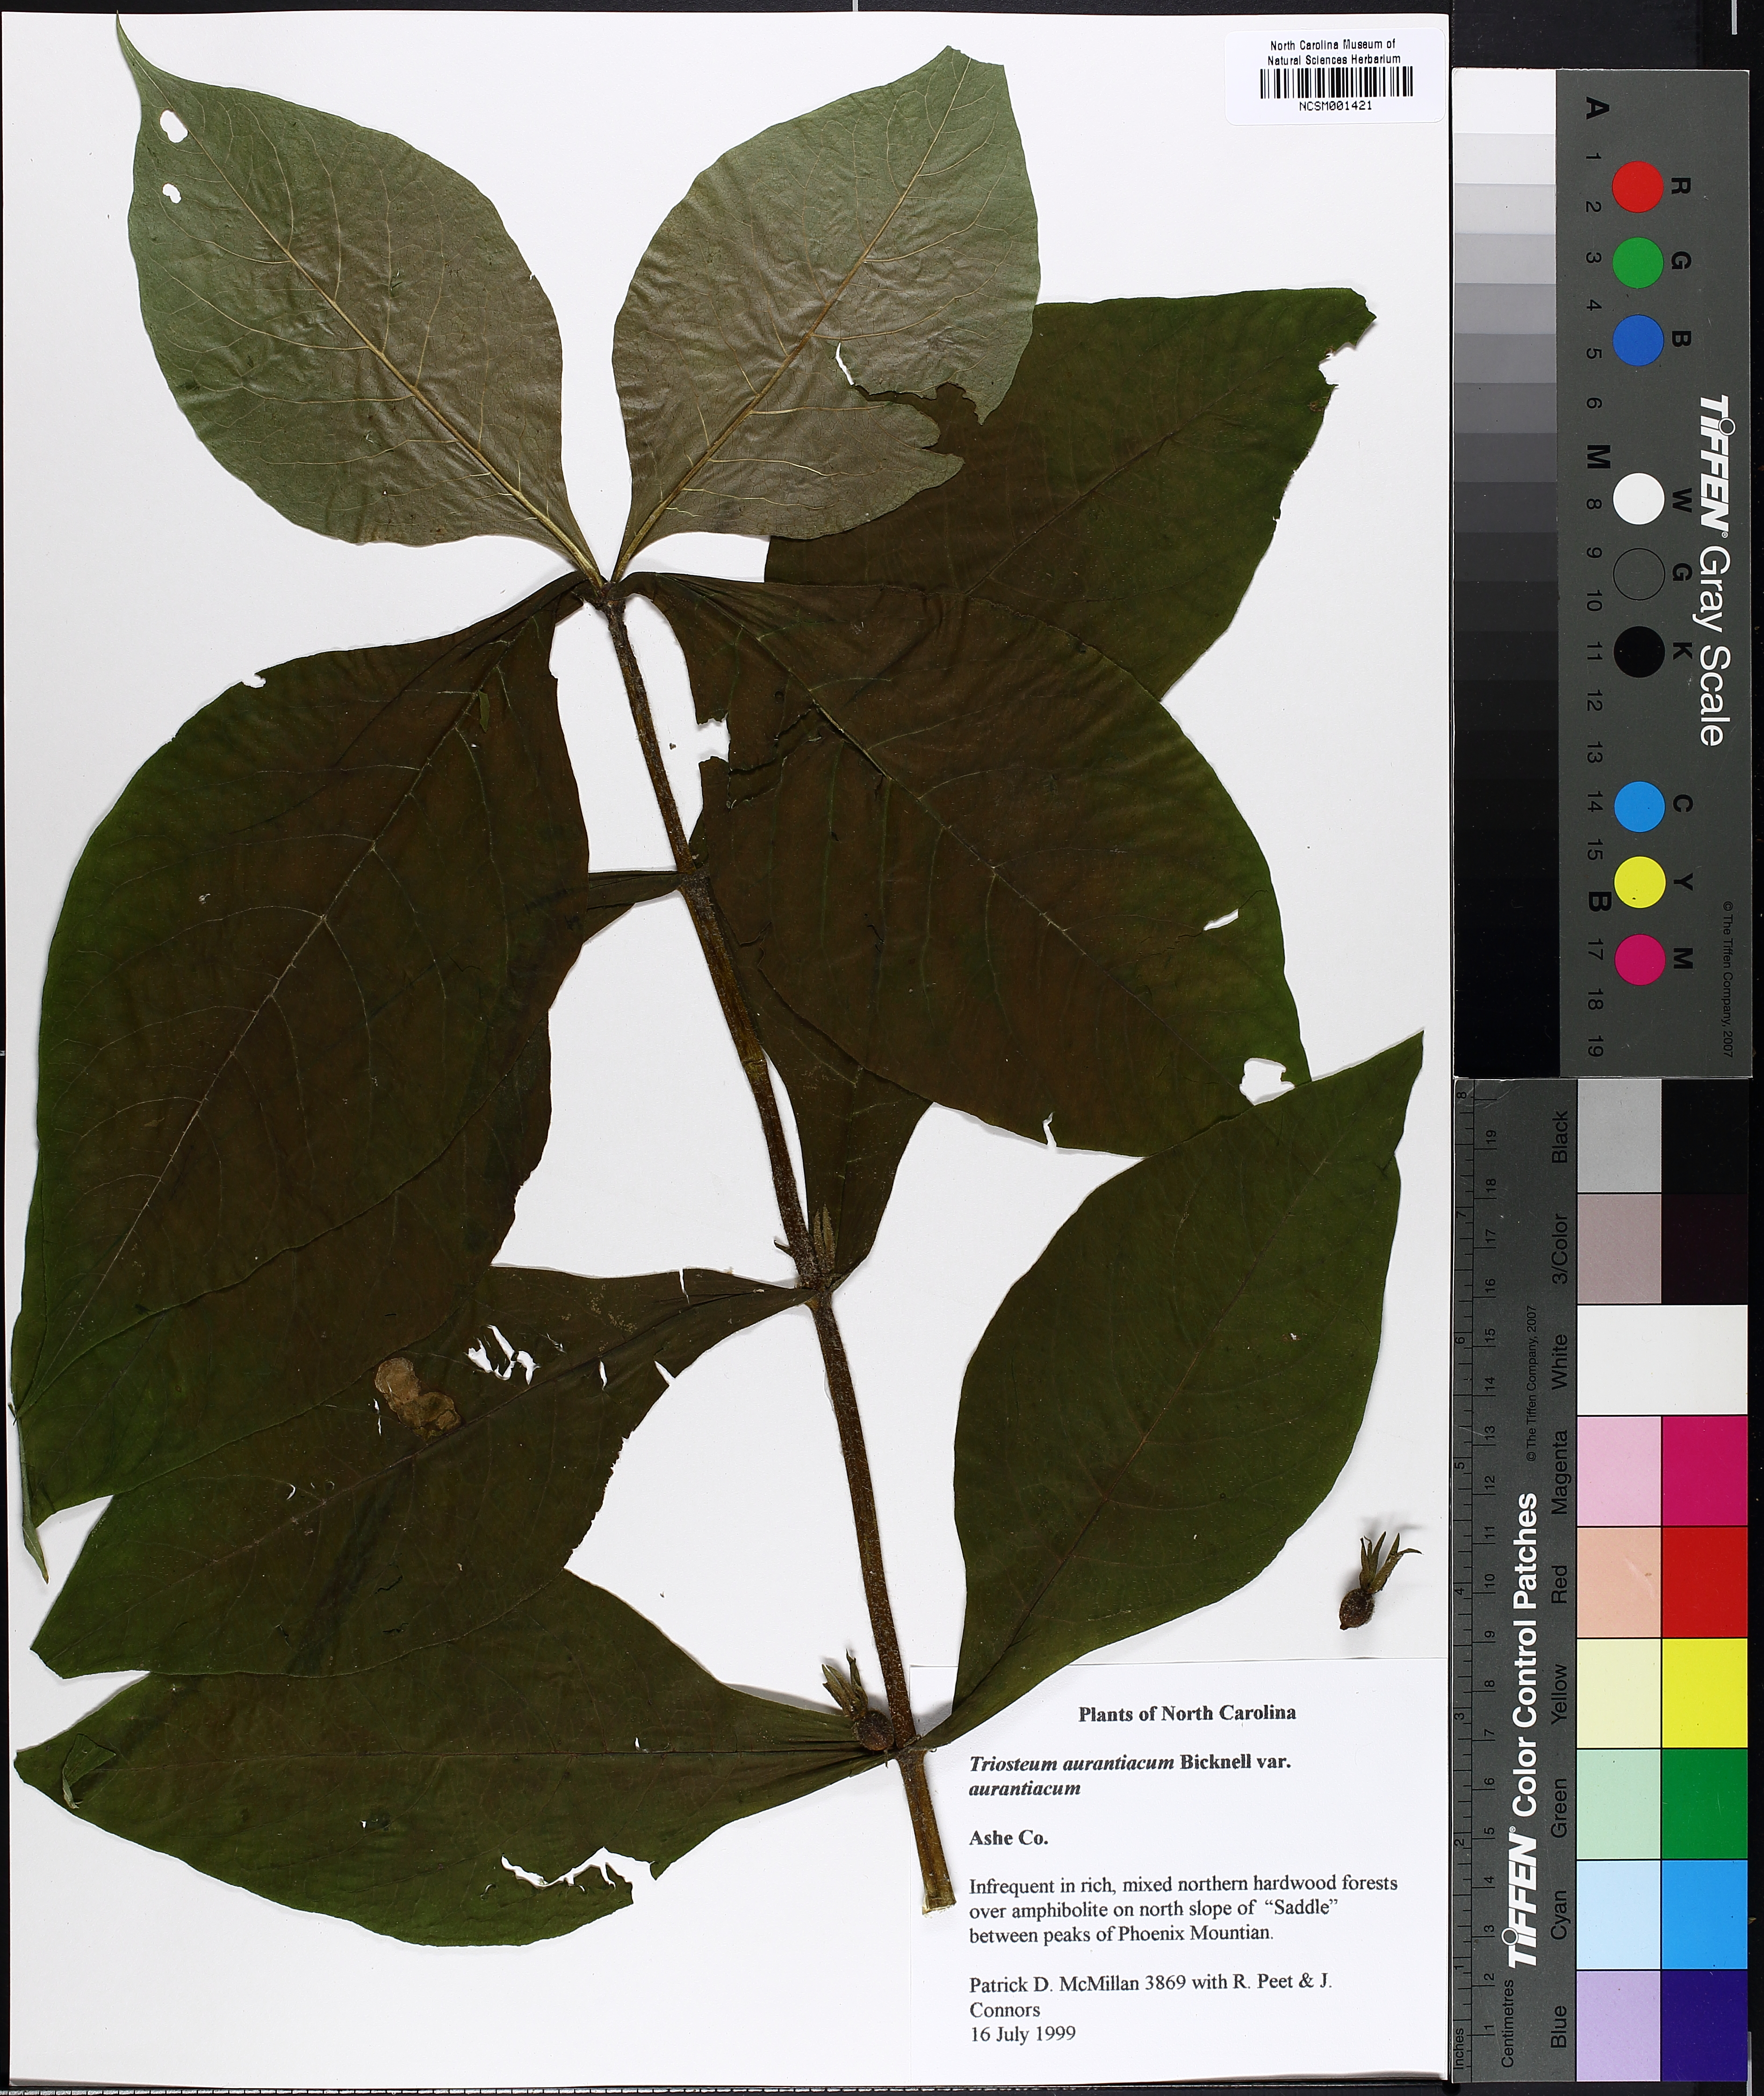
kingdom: Plantae
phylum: Tracheophyta
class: Magnoliopsida
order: Dipsacales
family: Caprifoliaceae
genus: Triosteum
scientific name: Triosteum aurantiacum
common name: Coffee tinker's-weed
